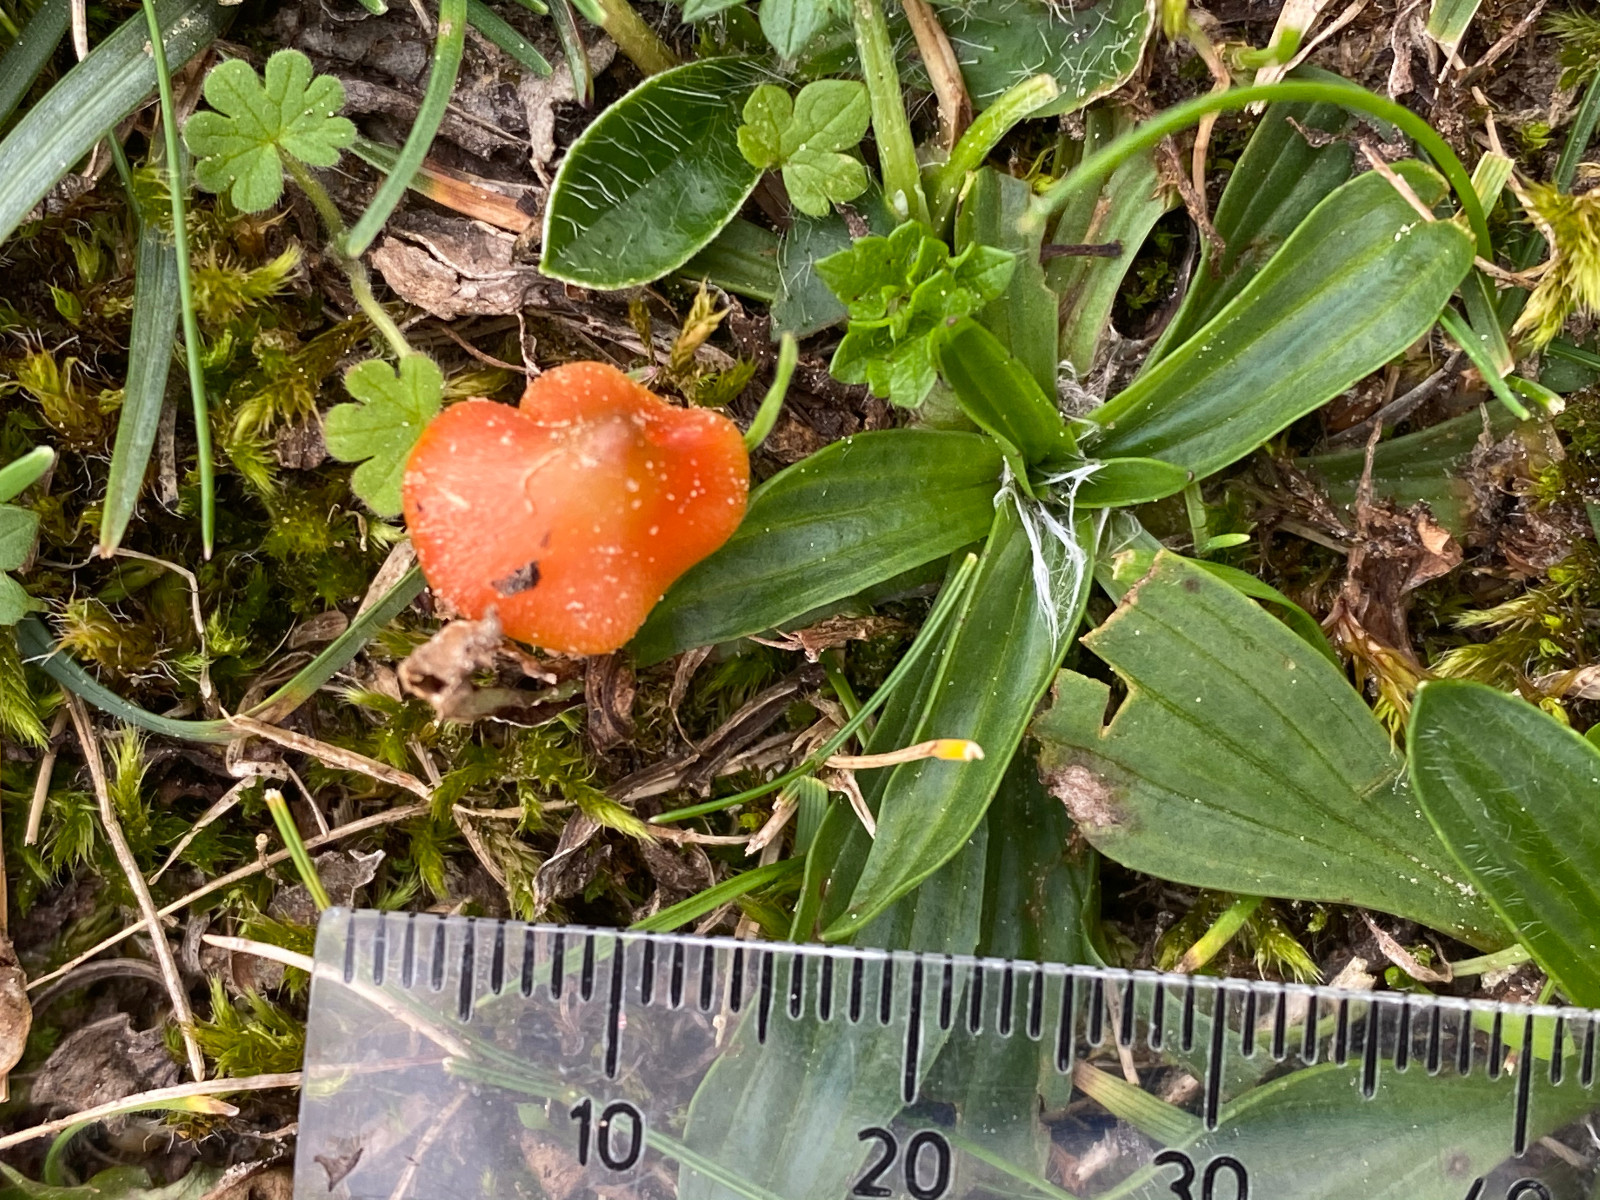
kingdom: Fungi
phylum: Basidiomycota
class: Agaricomycetes
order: Agaricales
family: Hygrophoraceae
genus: Hygrocybe
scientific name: Hygrocybe
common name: vokshat
